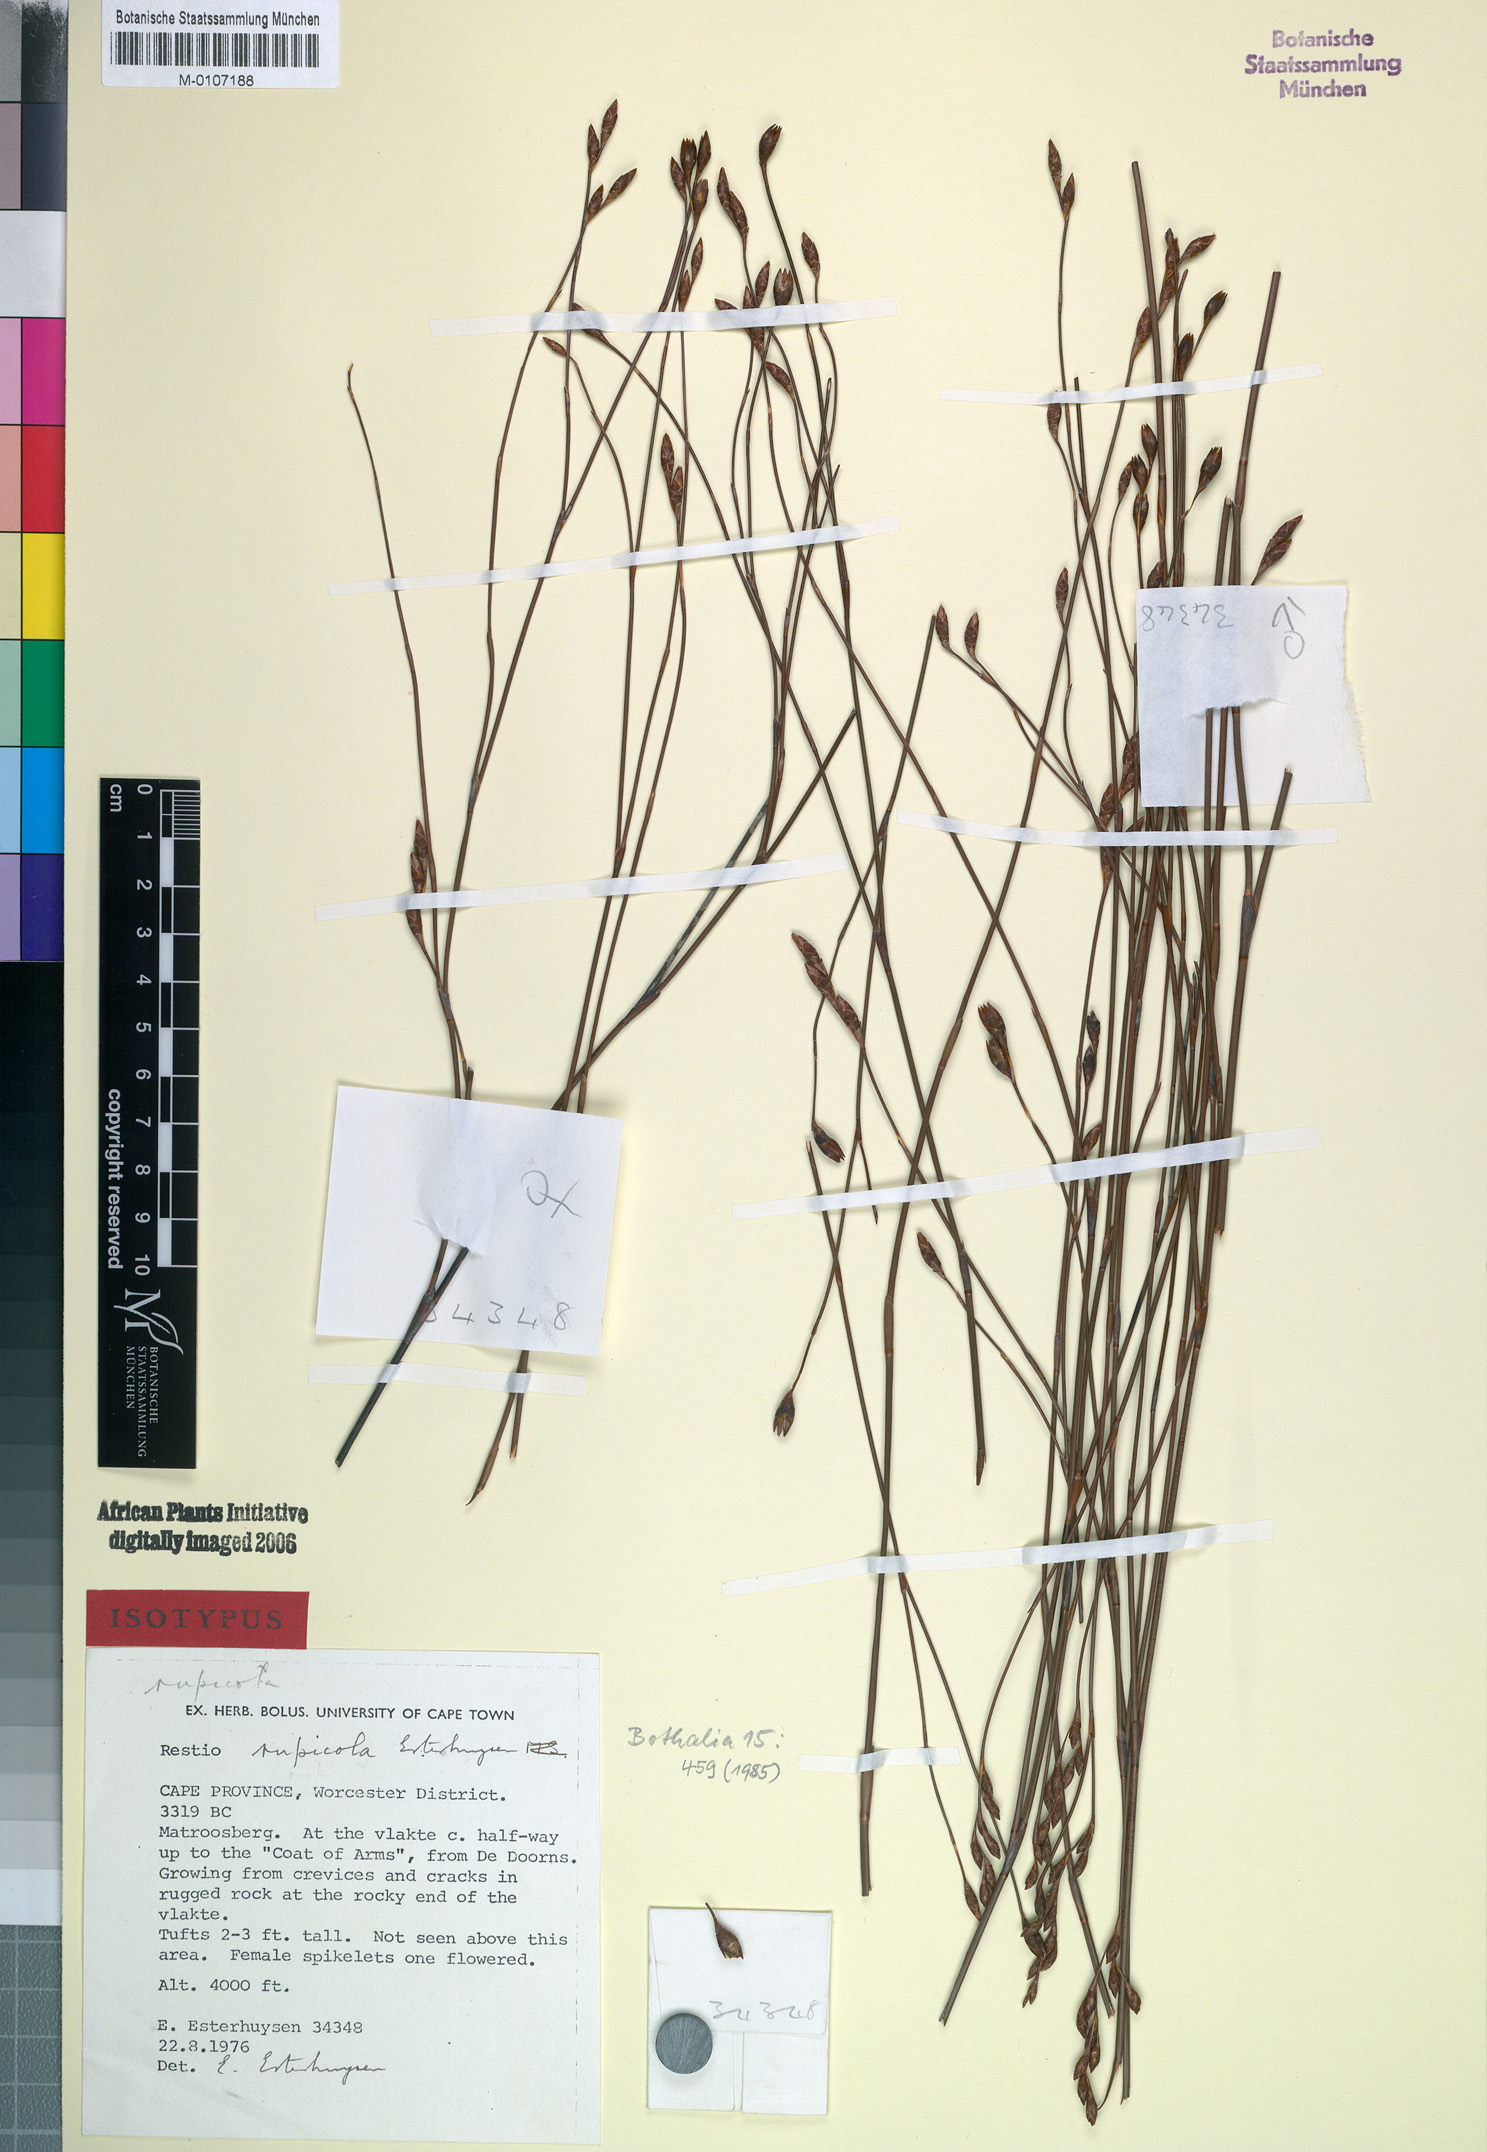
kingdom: Plantae
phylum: Tracheophyta
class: Liliopsida
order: Poales
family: Restionaceae
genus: Restio
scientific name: Restio rupicola
